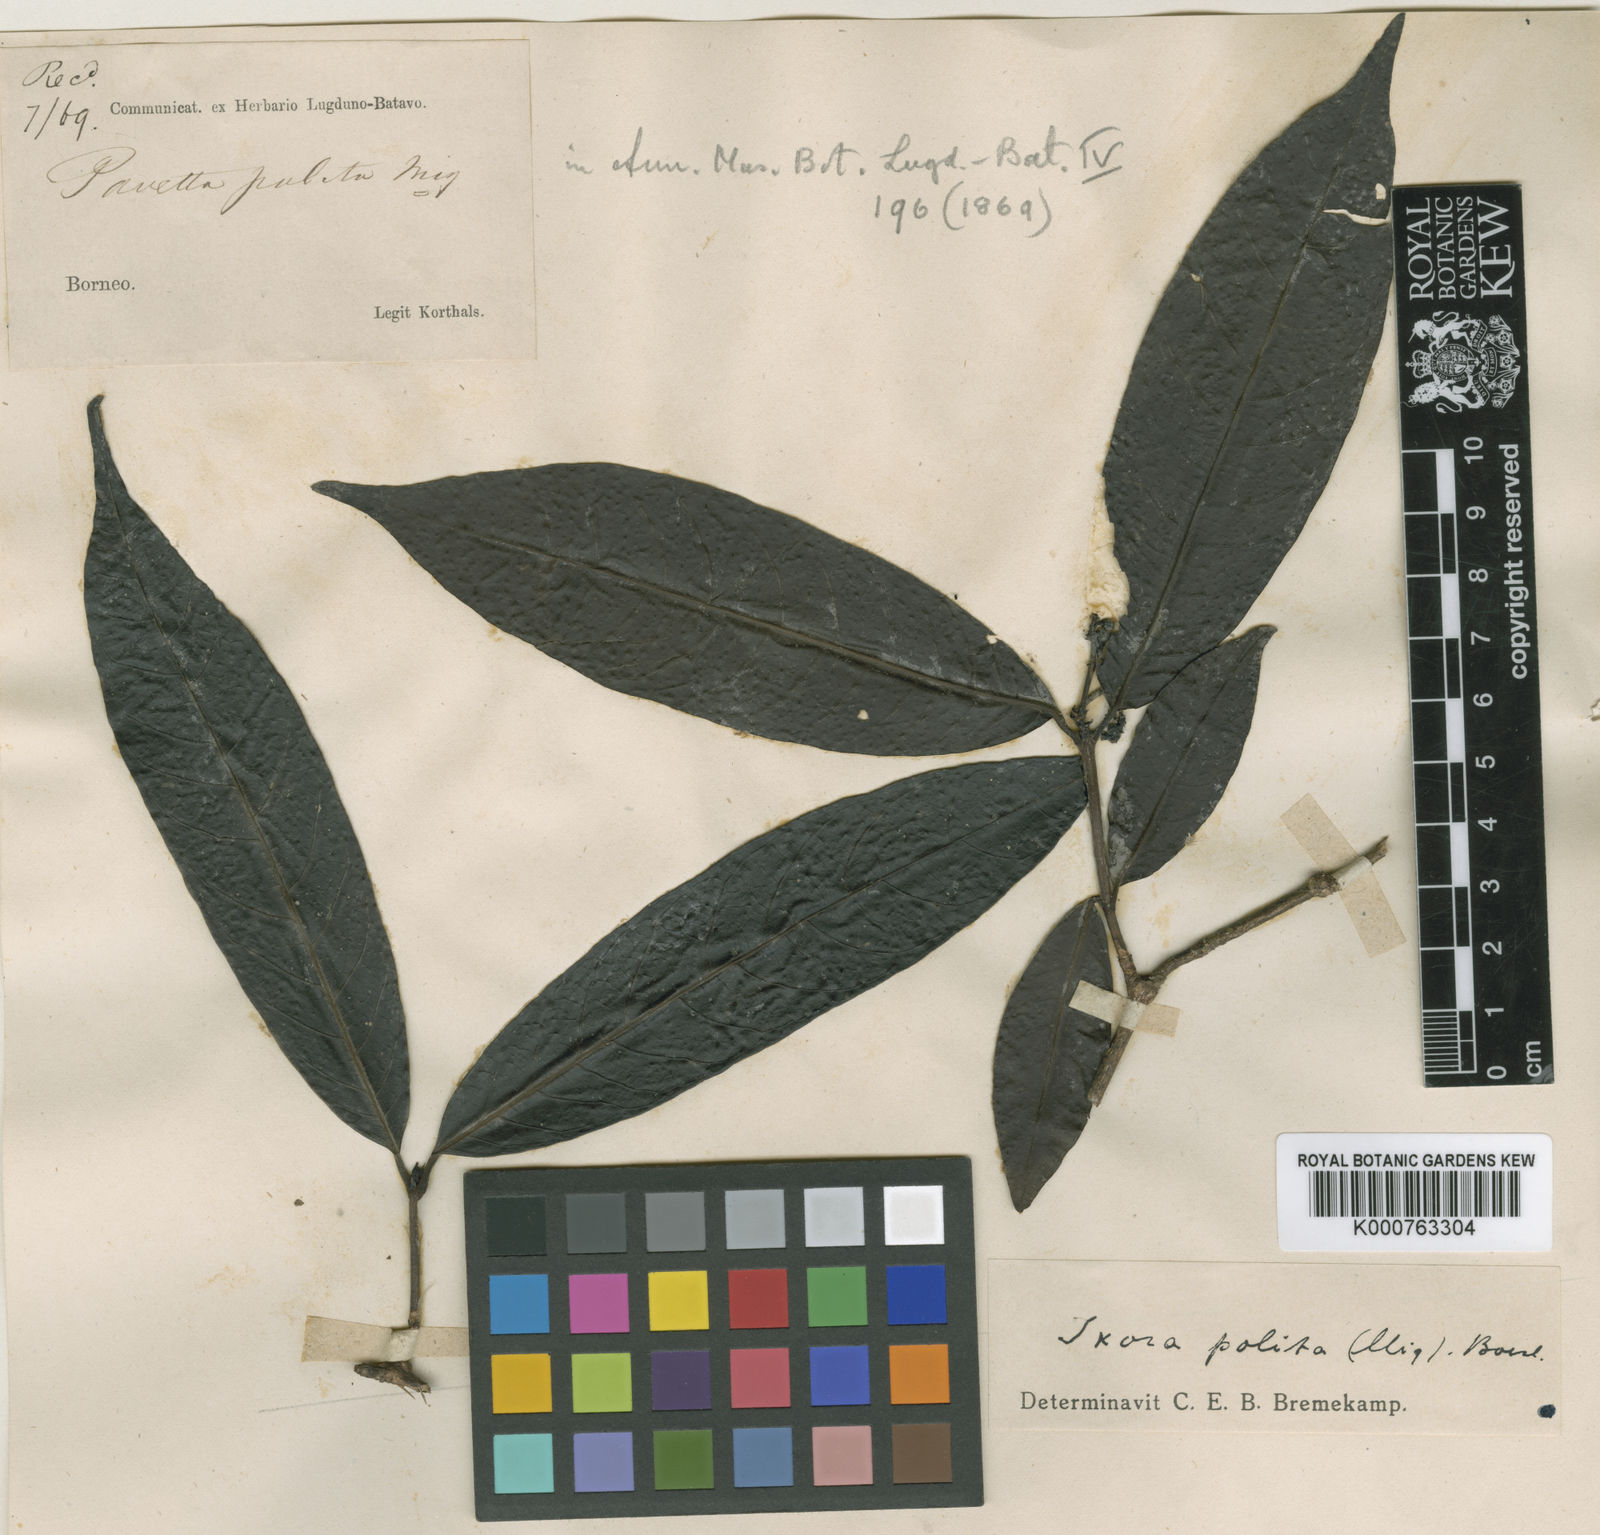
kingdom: Plantae
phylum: Tracheophyta
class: Magnoliopsida
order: Gentianales
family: Rubiaceae
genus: Ixora
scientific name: Ixora polita
